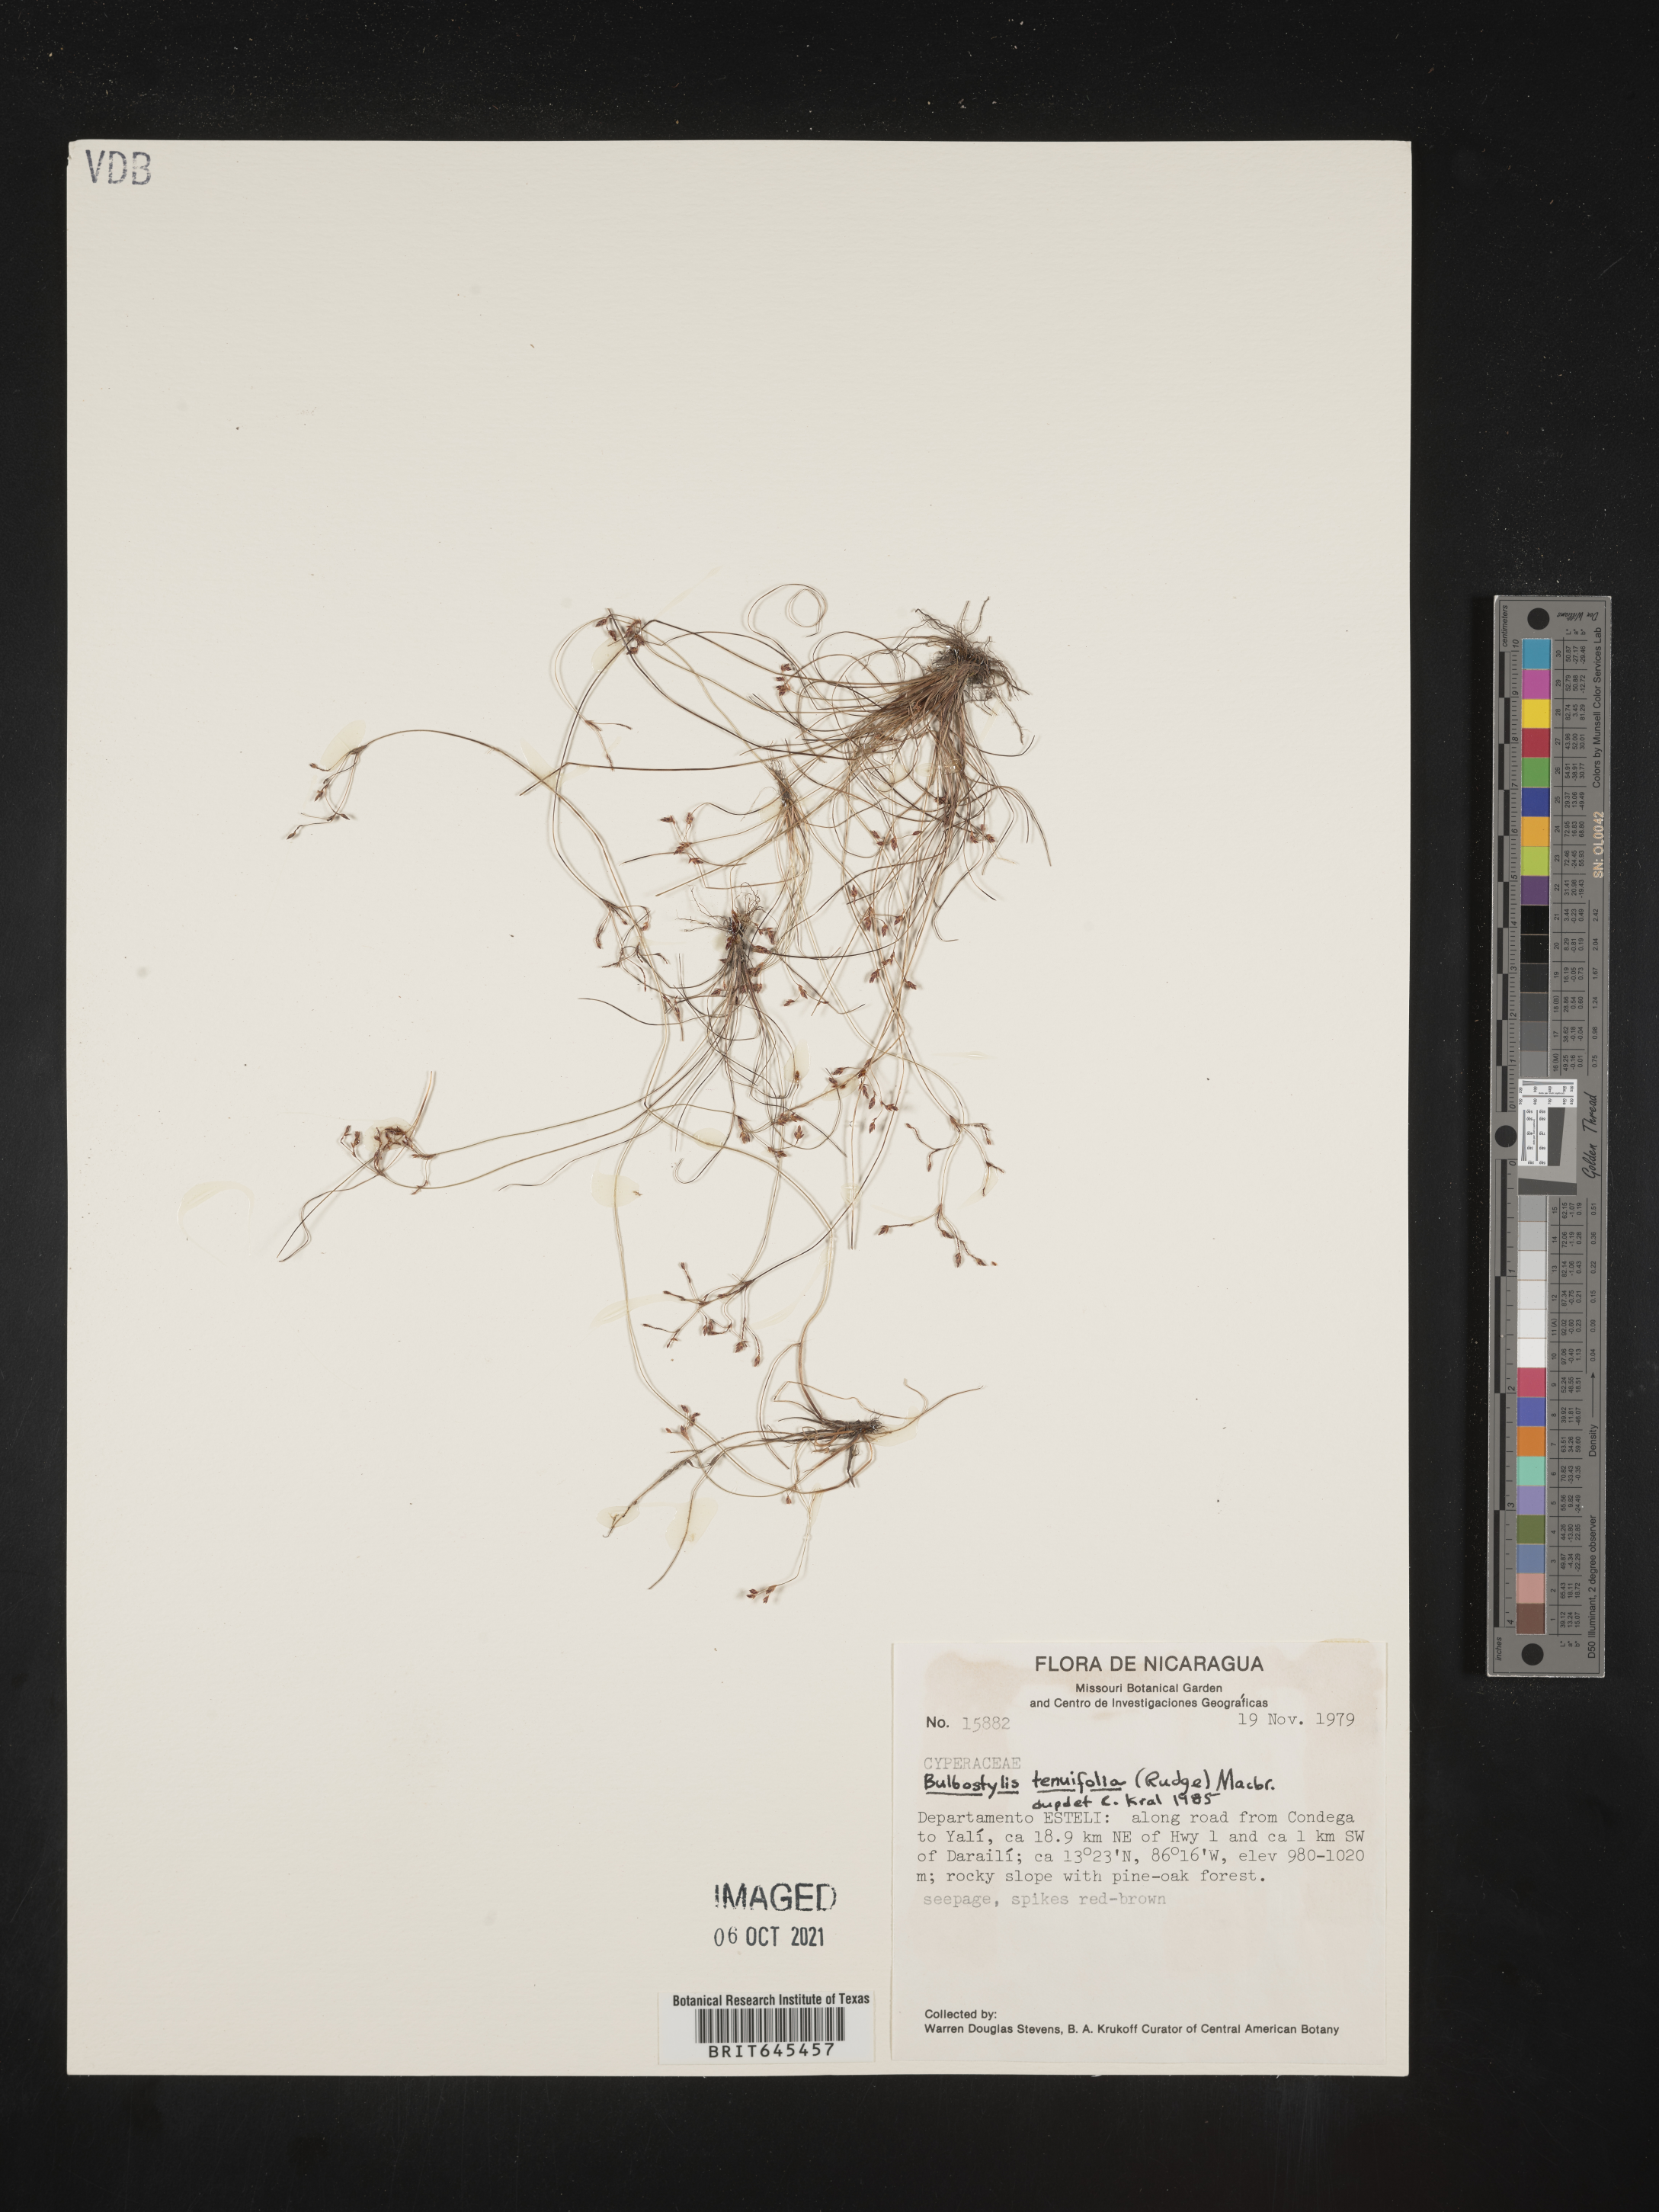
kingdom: Plantae
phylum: Tracheophyta
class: Liliopsida
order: Poales
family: Cyperaceae
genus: Eleocharis
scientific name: Eleocharis Bulbostylis tenuifolia
